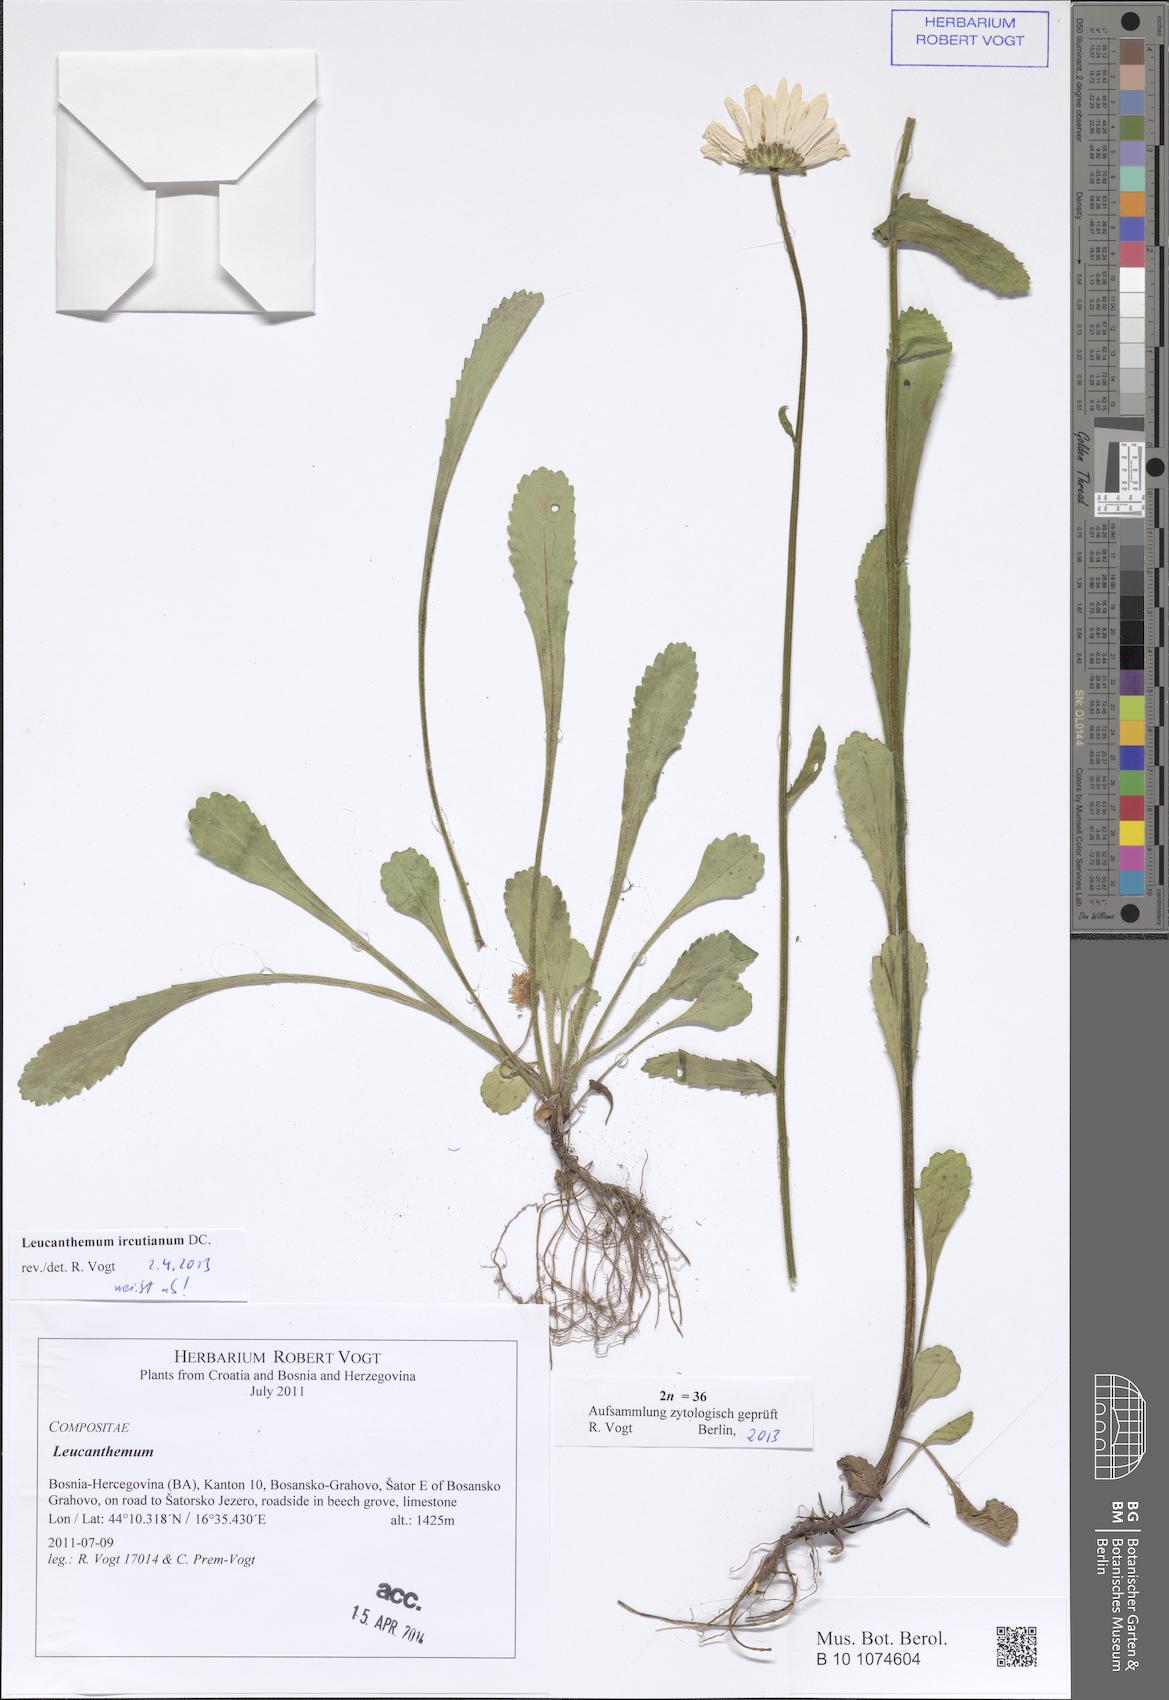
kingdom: Plantae
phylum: Tracheophyta
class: Magnoliopsida
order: Asterales
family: Asteraceae
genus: Leucanthemum
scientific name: Leucanthemum ircutianum
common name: Daisy
